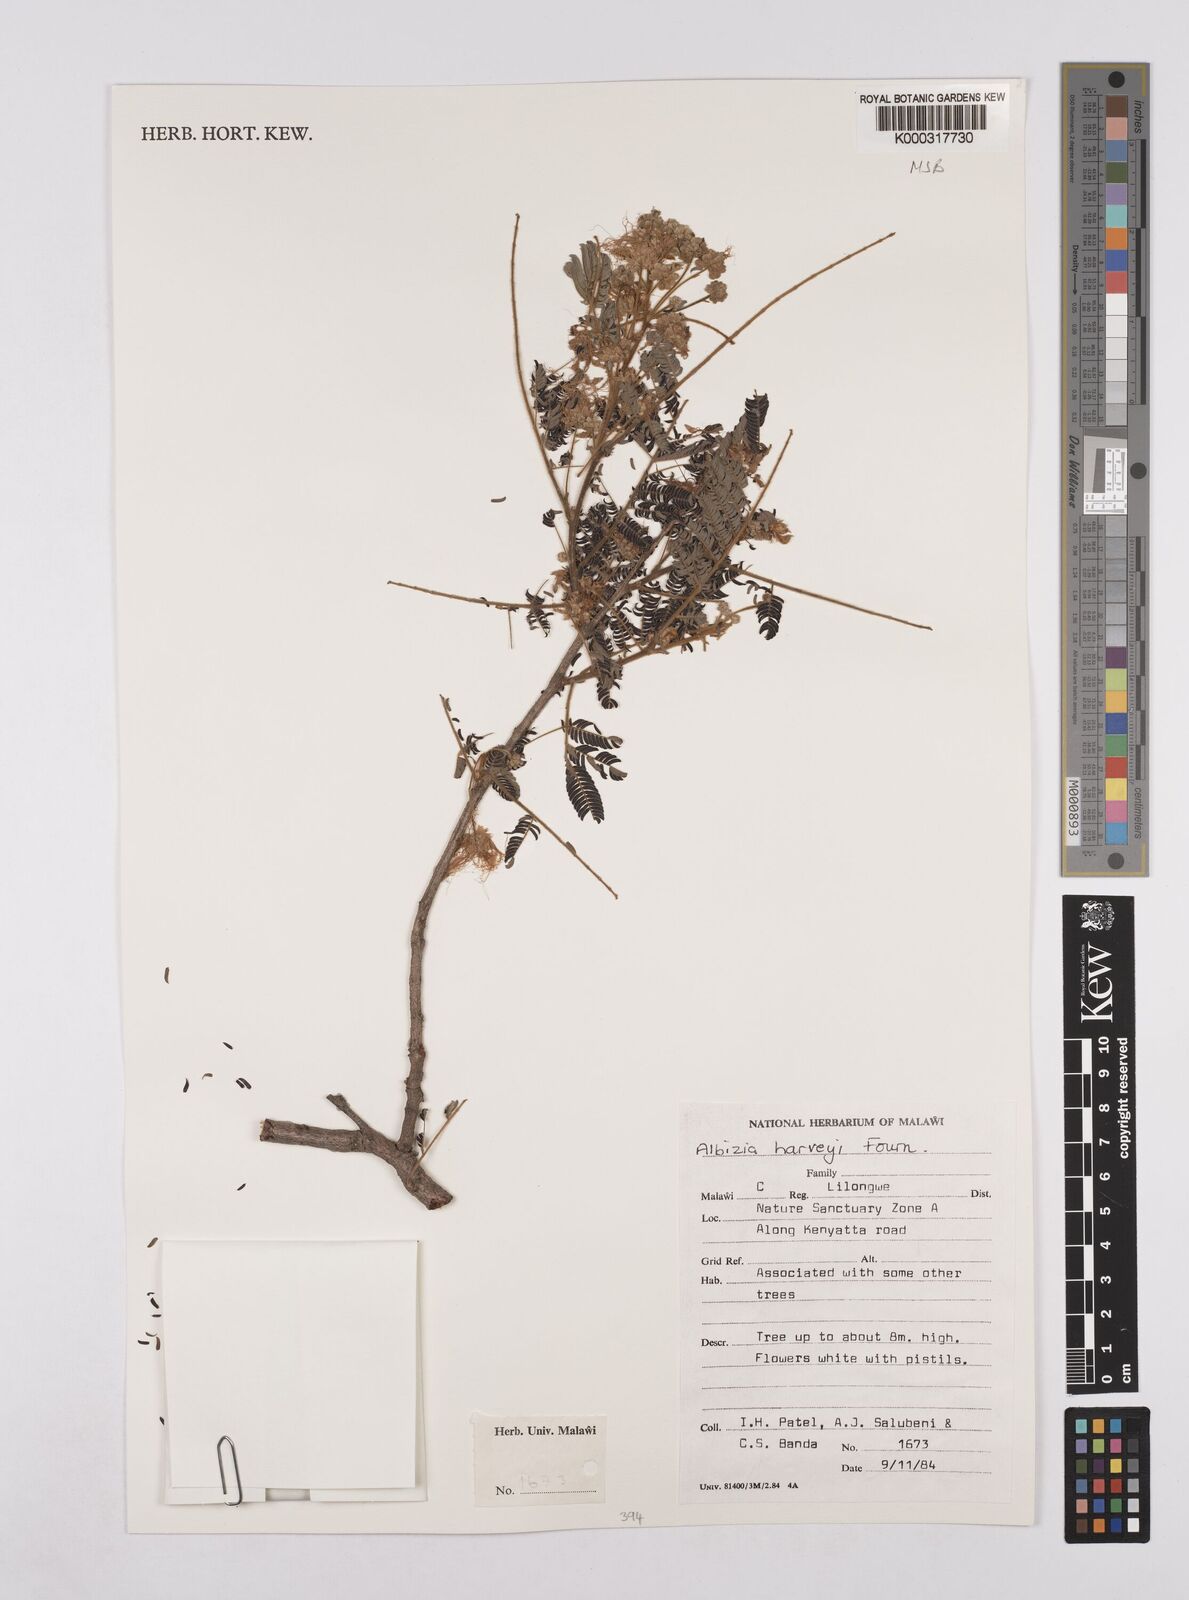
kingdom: Plantae
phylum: Tracheophyta
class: Magnoliopsida
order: Fabales
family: Fabaceae
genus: Albizia
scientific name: Albizia harveyi
